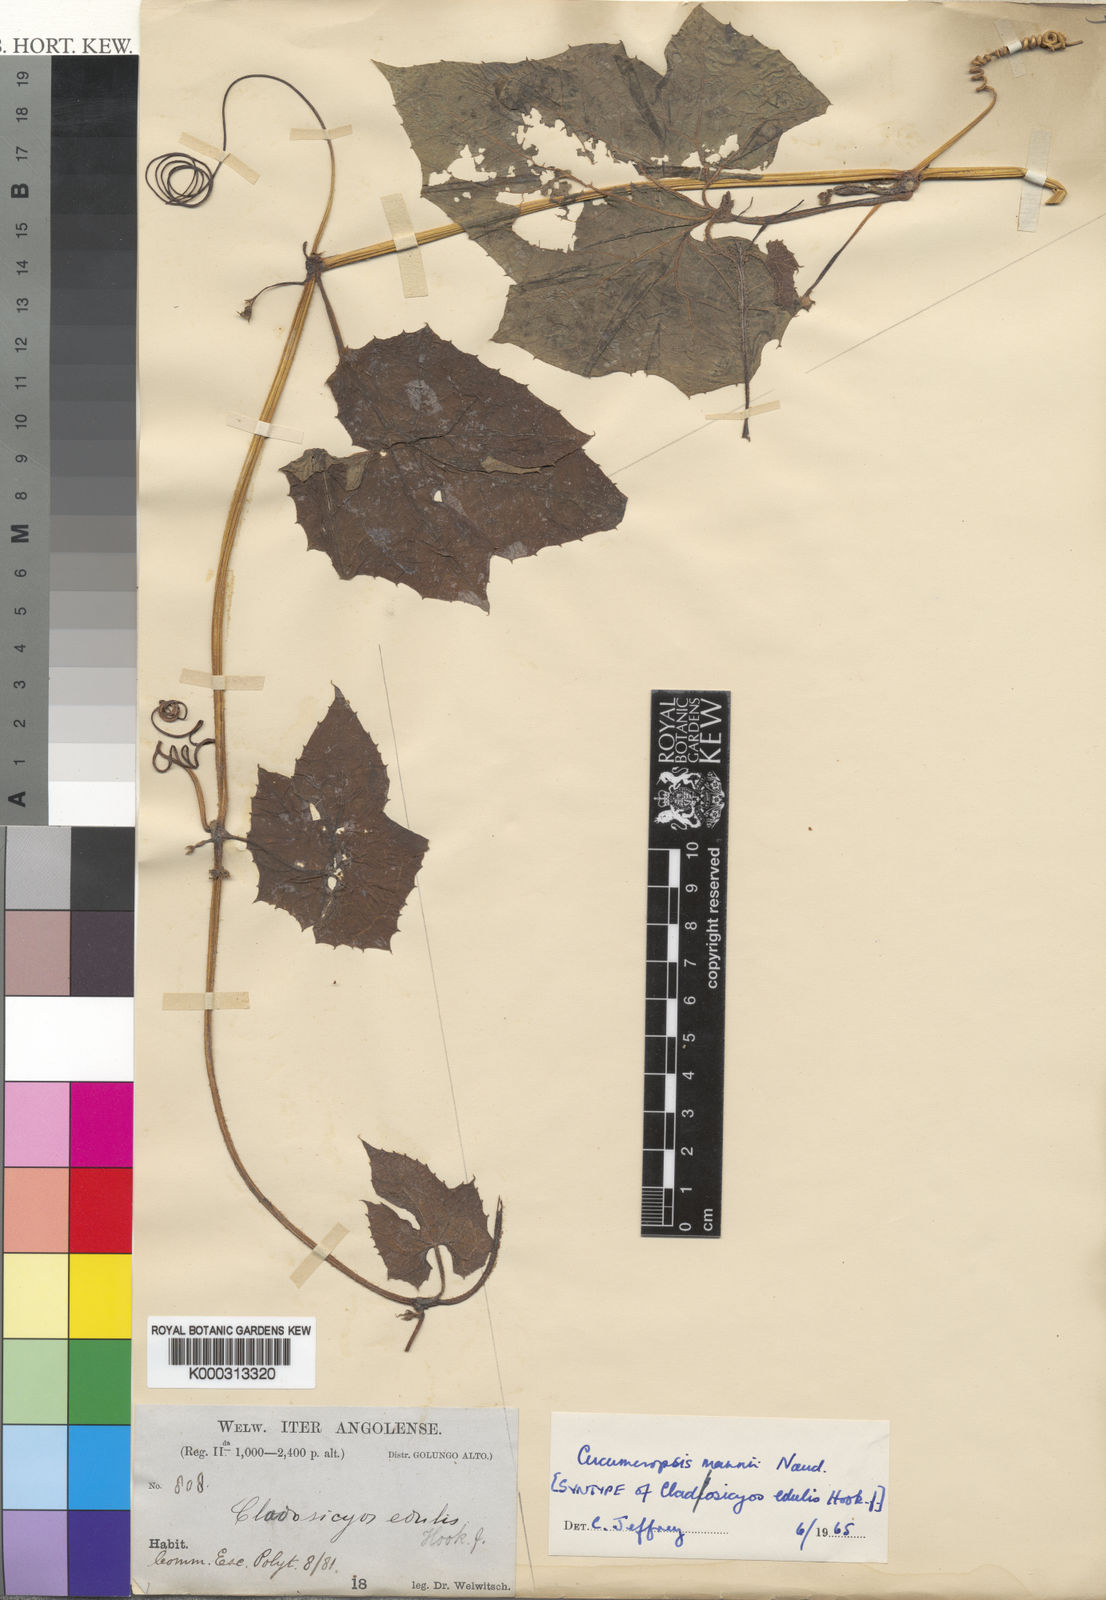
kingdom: Plantae
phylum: Tracheophyta
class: Magnoliopsida
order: Cucurbitales
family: Cucurbitaceae
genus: Melothria
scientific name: Melothria sphaerocarpa
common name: Egusi-itoo
